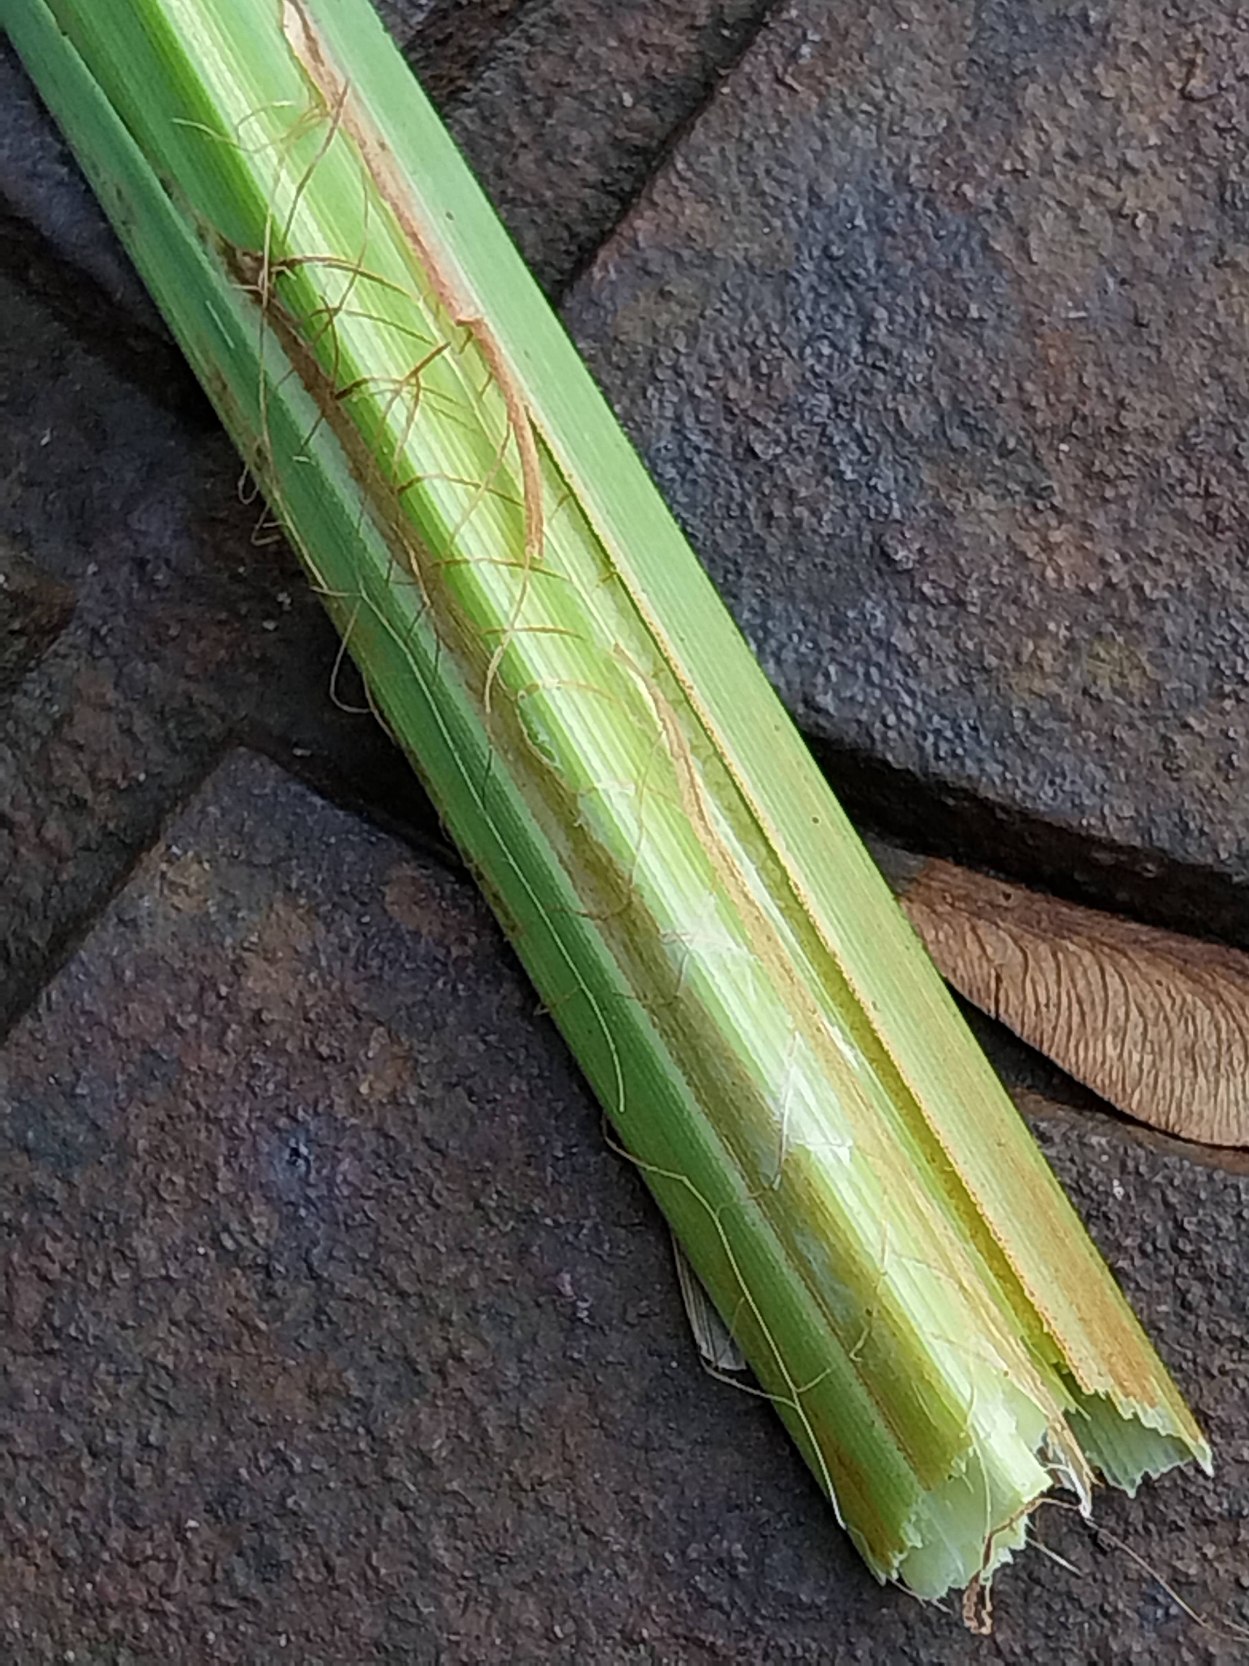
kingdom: Plantae
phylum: Tracheophyta
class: Liliopsida
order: Poales
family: Cyperaceae
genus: Carex
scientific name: Carex acutiformis
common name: Kær-star
